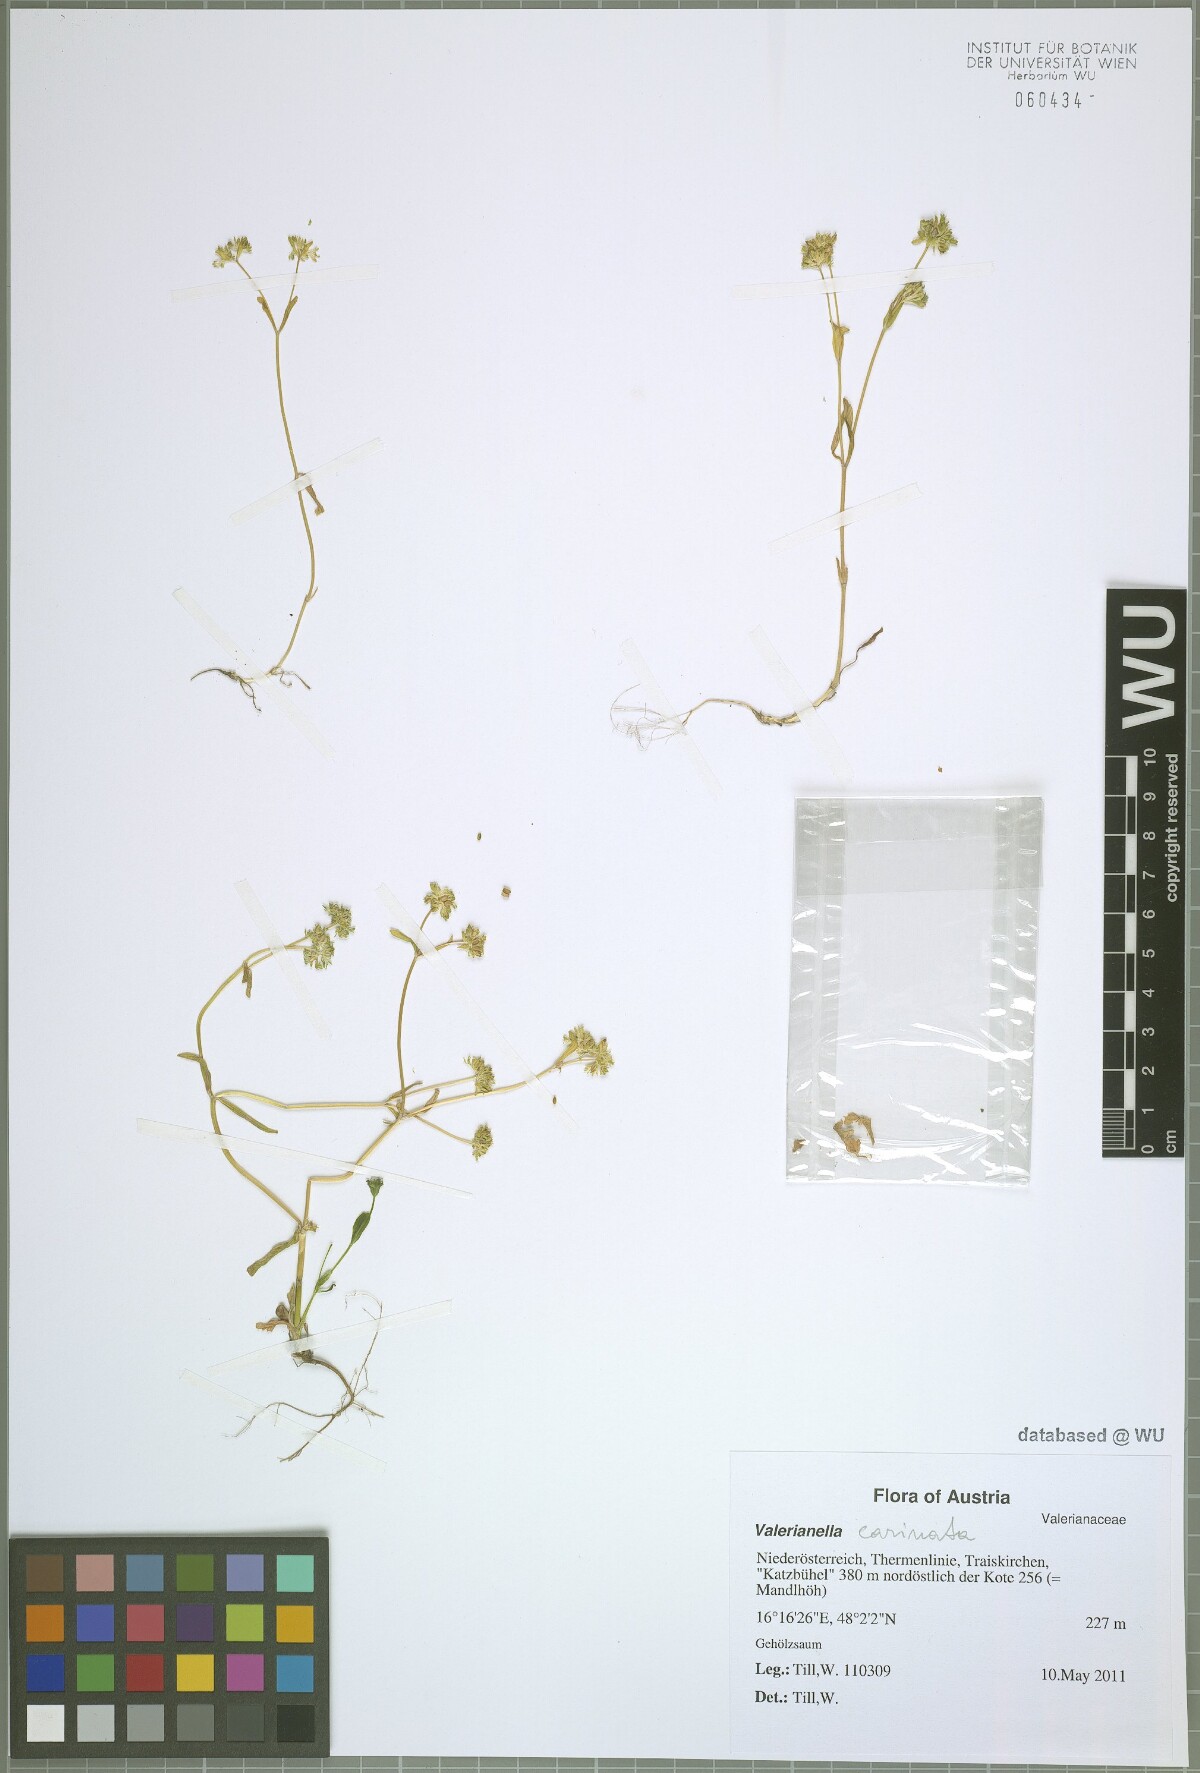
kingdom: Plantae
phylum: Tracheophyta
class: Magnoliopsida
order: Dipsacales
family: Caprifoliaceae
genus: Valerianella
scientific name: Valerianella carinata
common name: Keeled-fruited cornsalad
